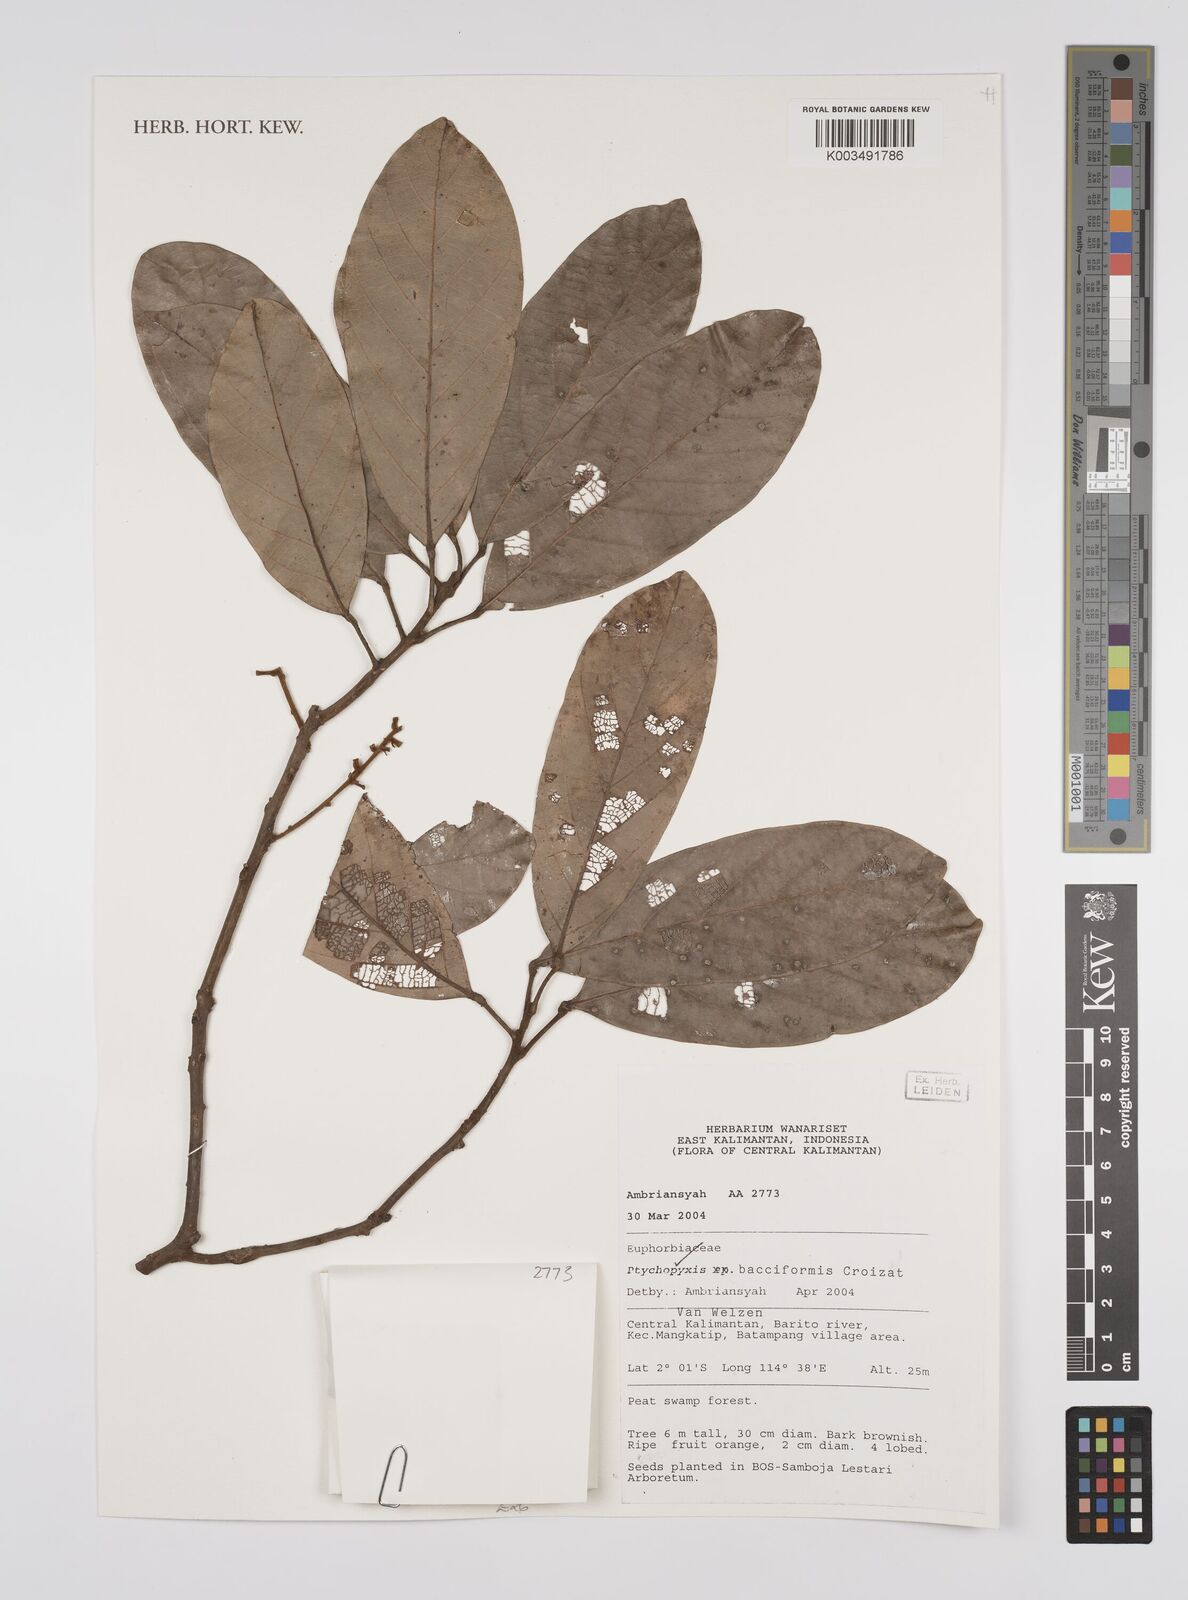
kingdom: Plantae
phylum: Tracheophyta
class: Magnoliopsida
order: Malpighiales
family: Euphorbiaceae
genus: Ptychopyxis
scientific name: Ptychopyxis bacciformis
